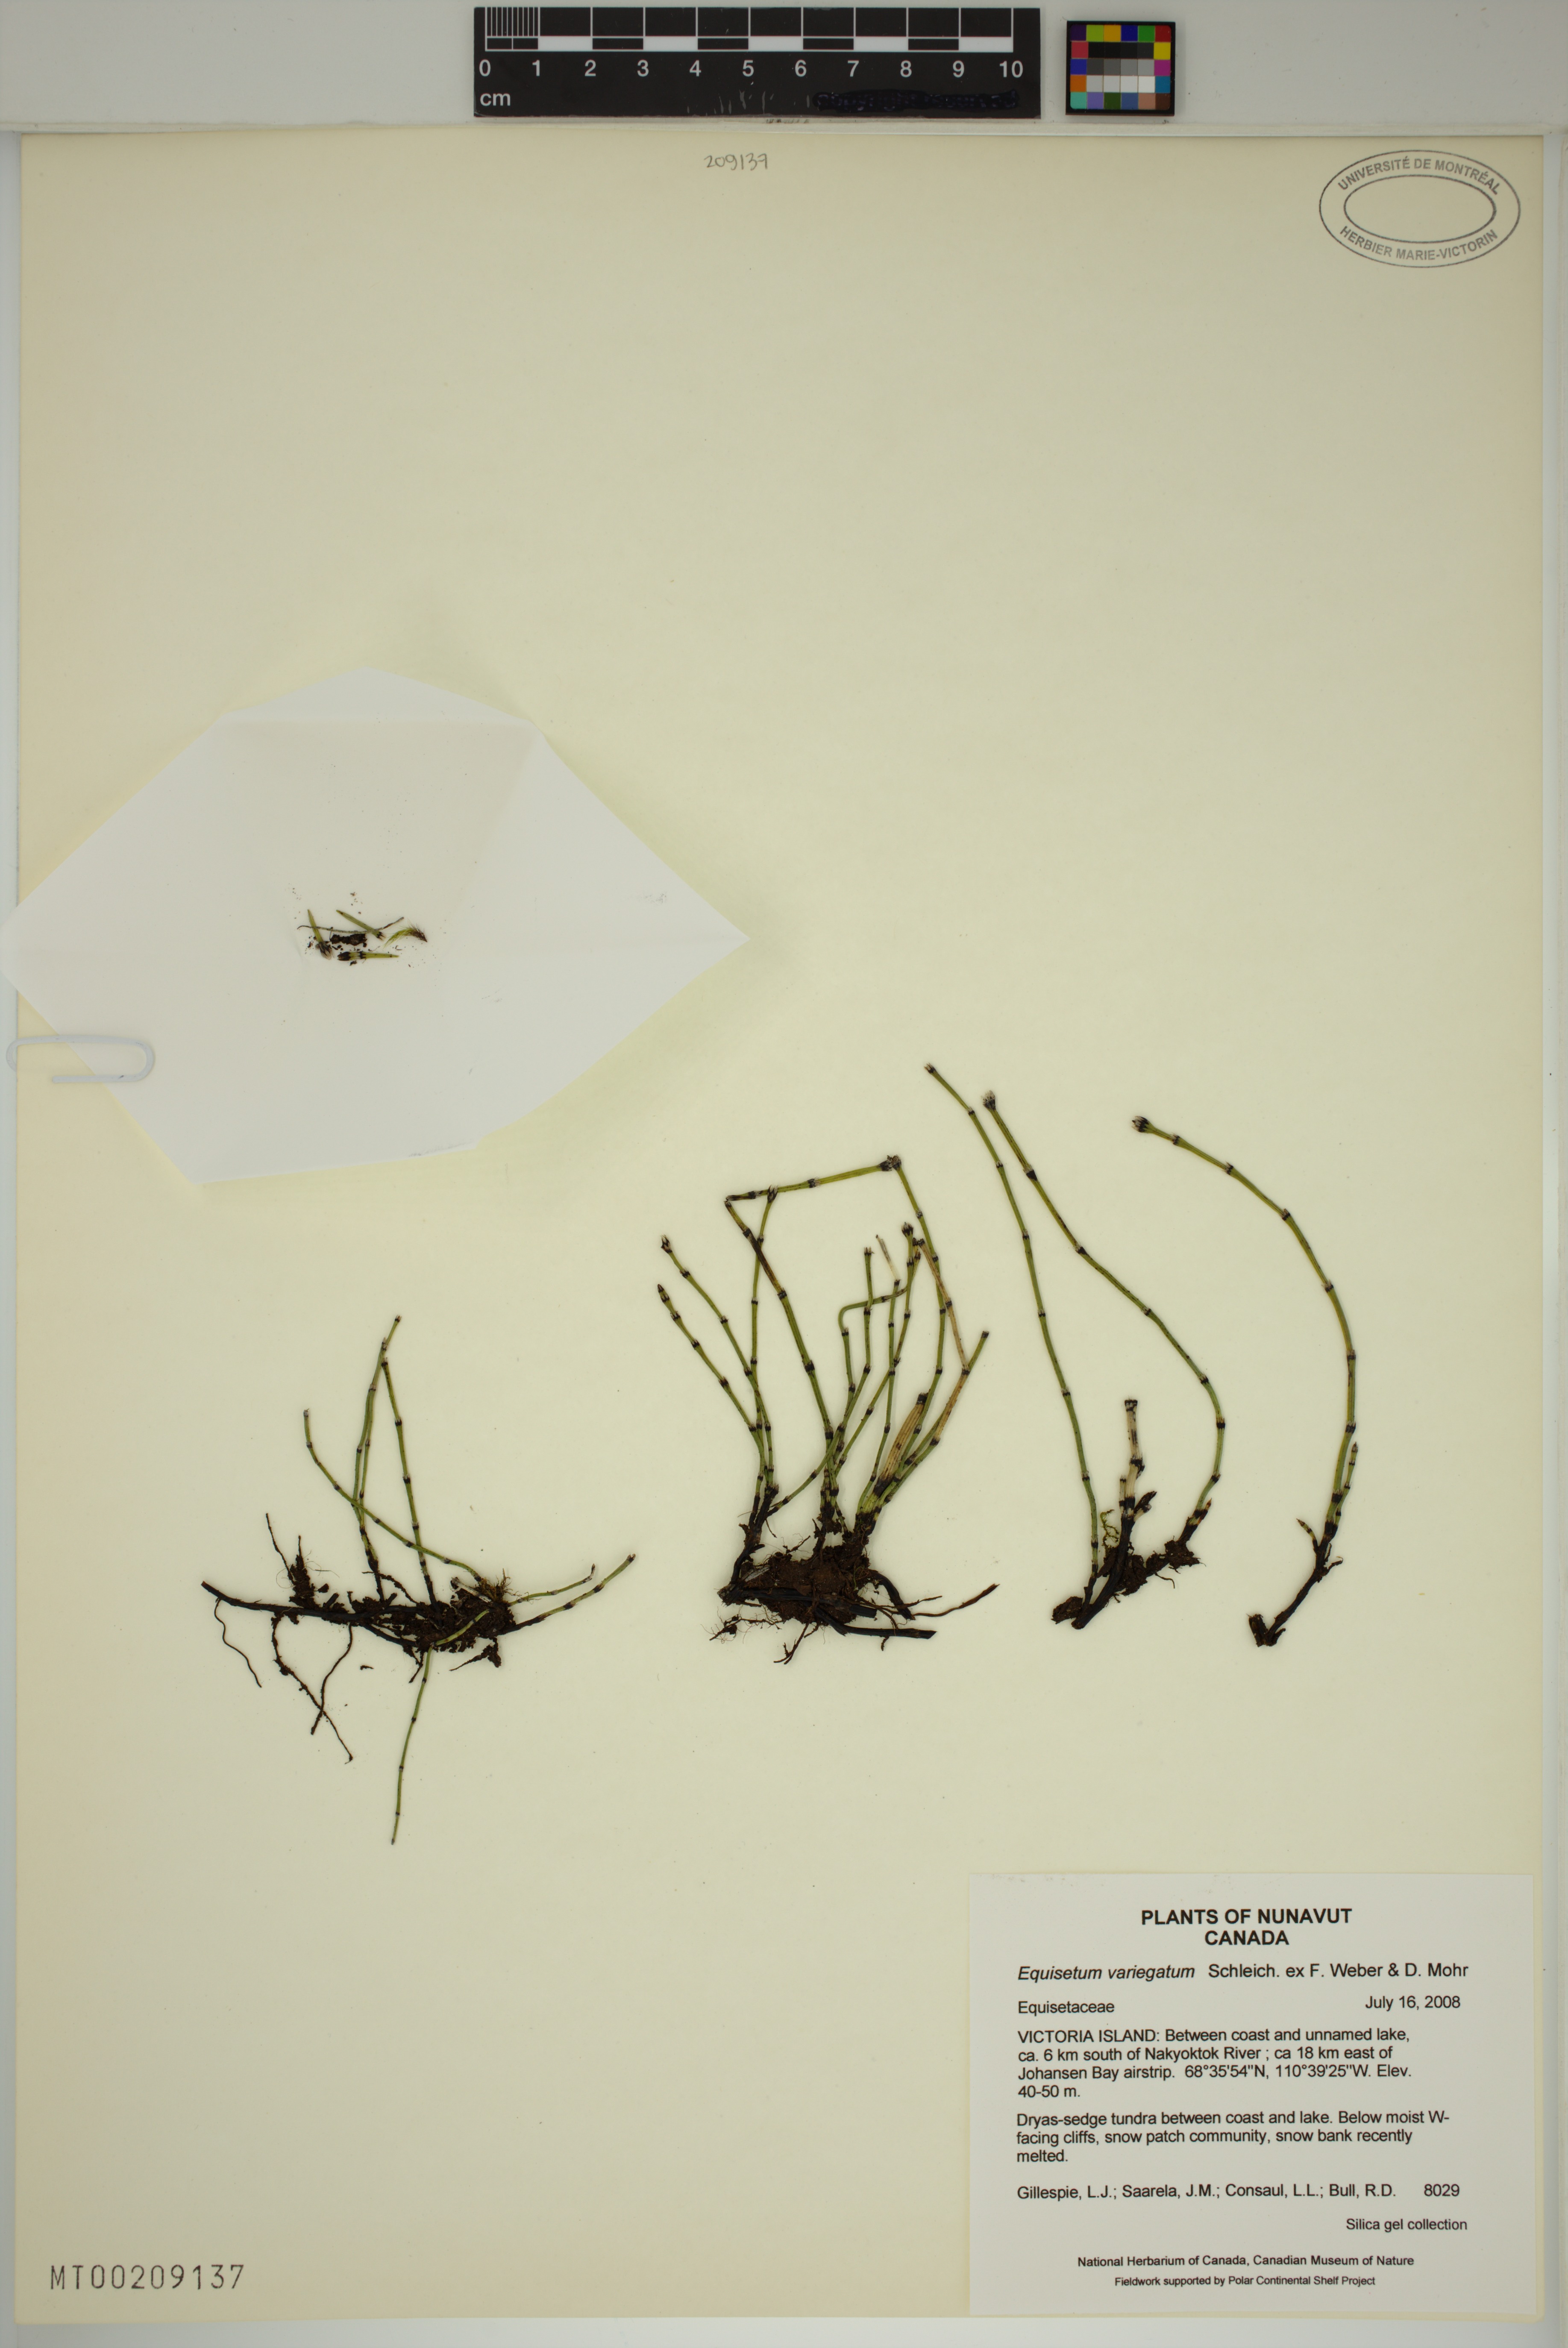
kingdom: Plantae
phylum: Tracheophyta
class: Polypodiopsida
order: Equisetales
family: Equisetaceae
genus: Equisetum
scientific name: Equisetum variegatum
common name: Variegated horsetail
